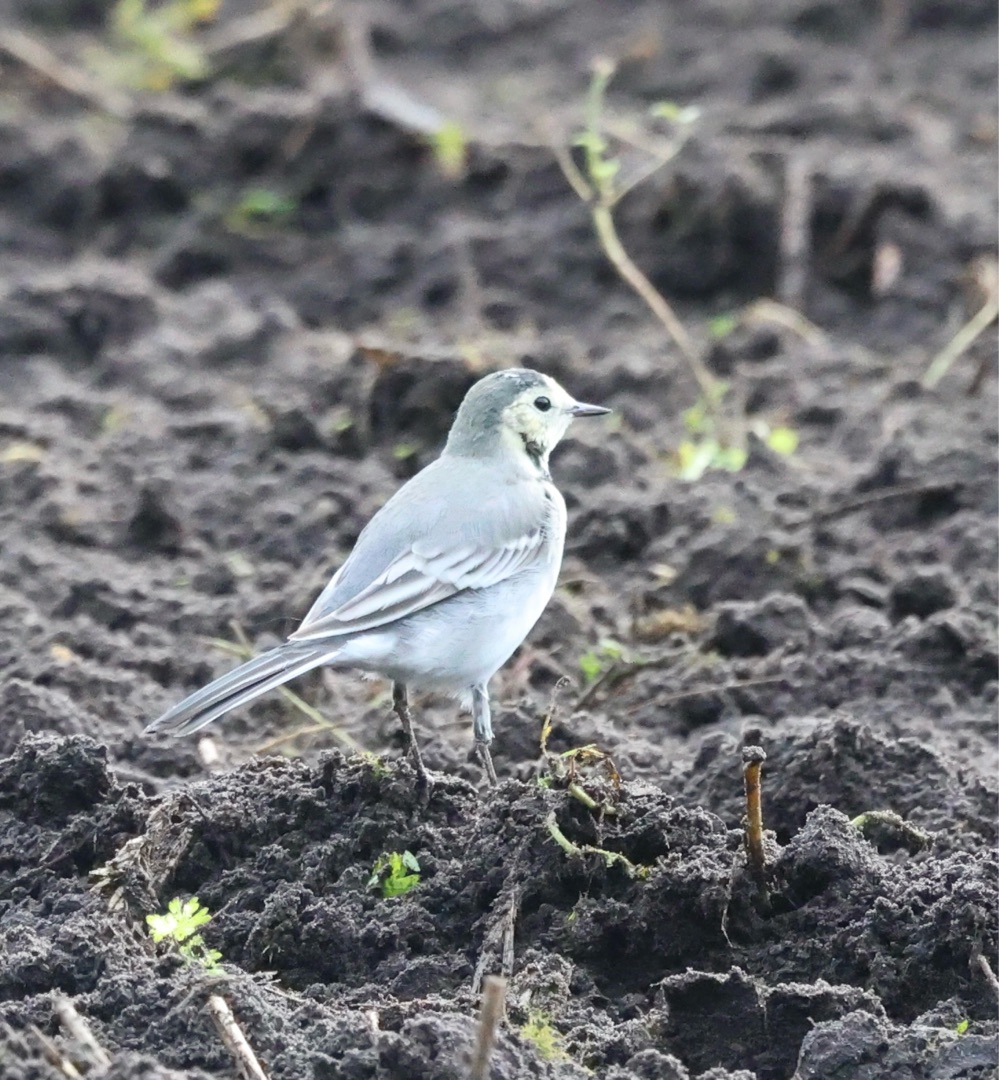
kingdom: Animalia
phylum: Chordata
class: Aves
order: Passeriformes
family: Motacillidae
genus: Motacilla
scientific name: Motacilla alba
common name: Hvid vipstjert
